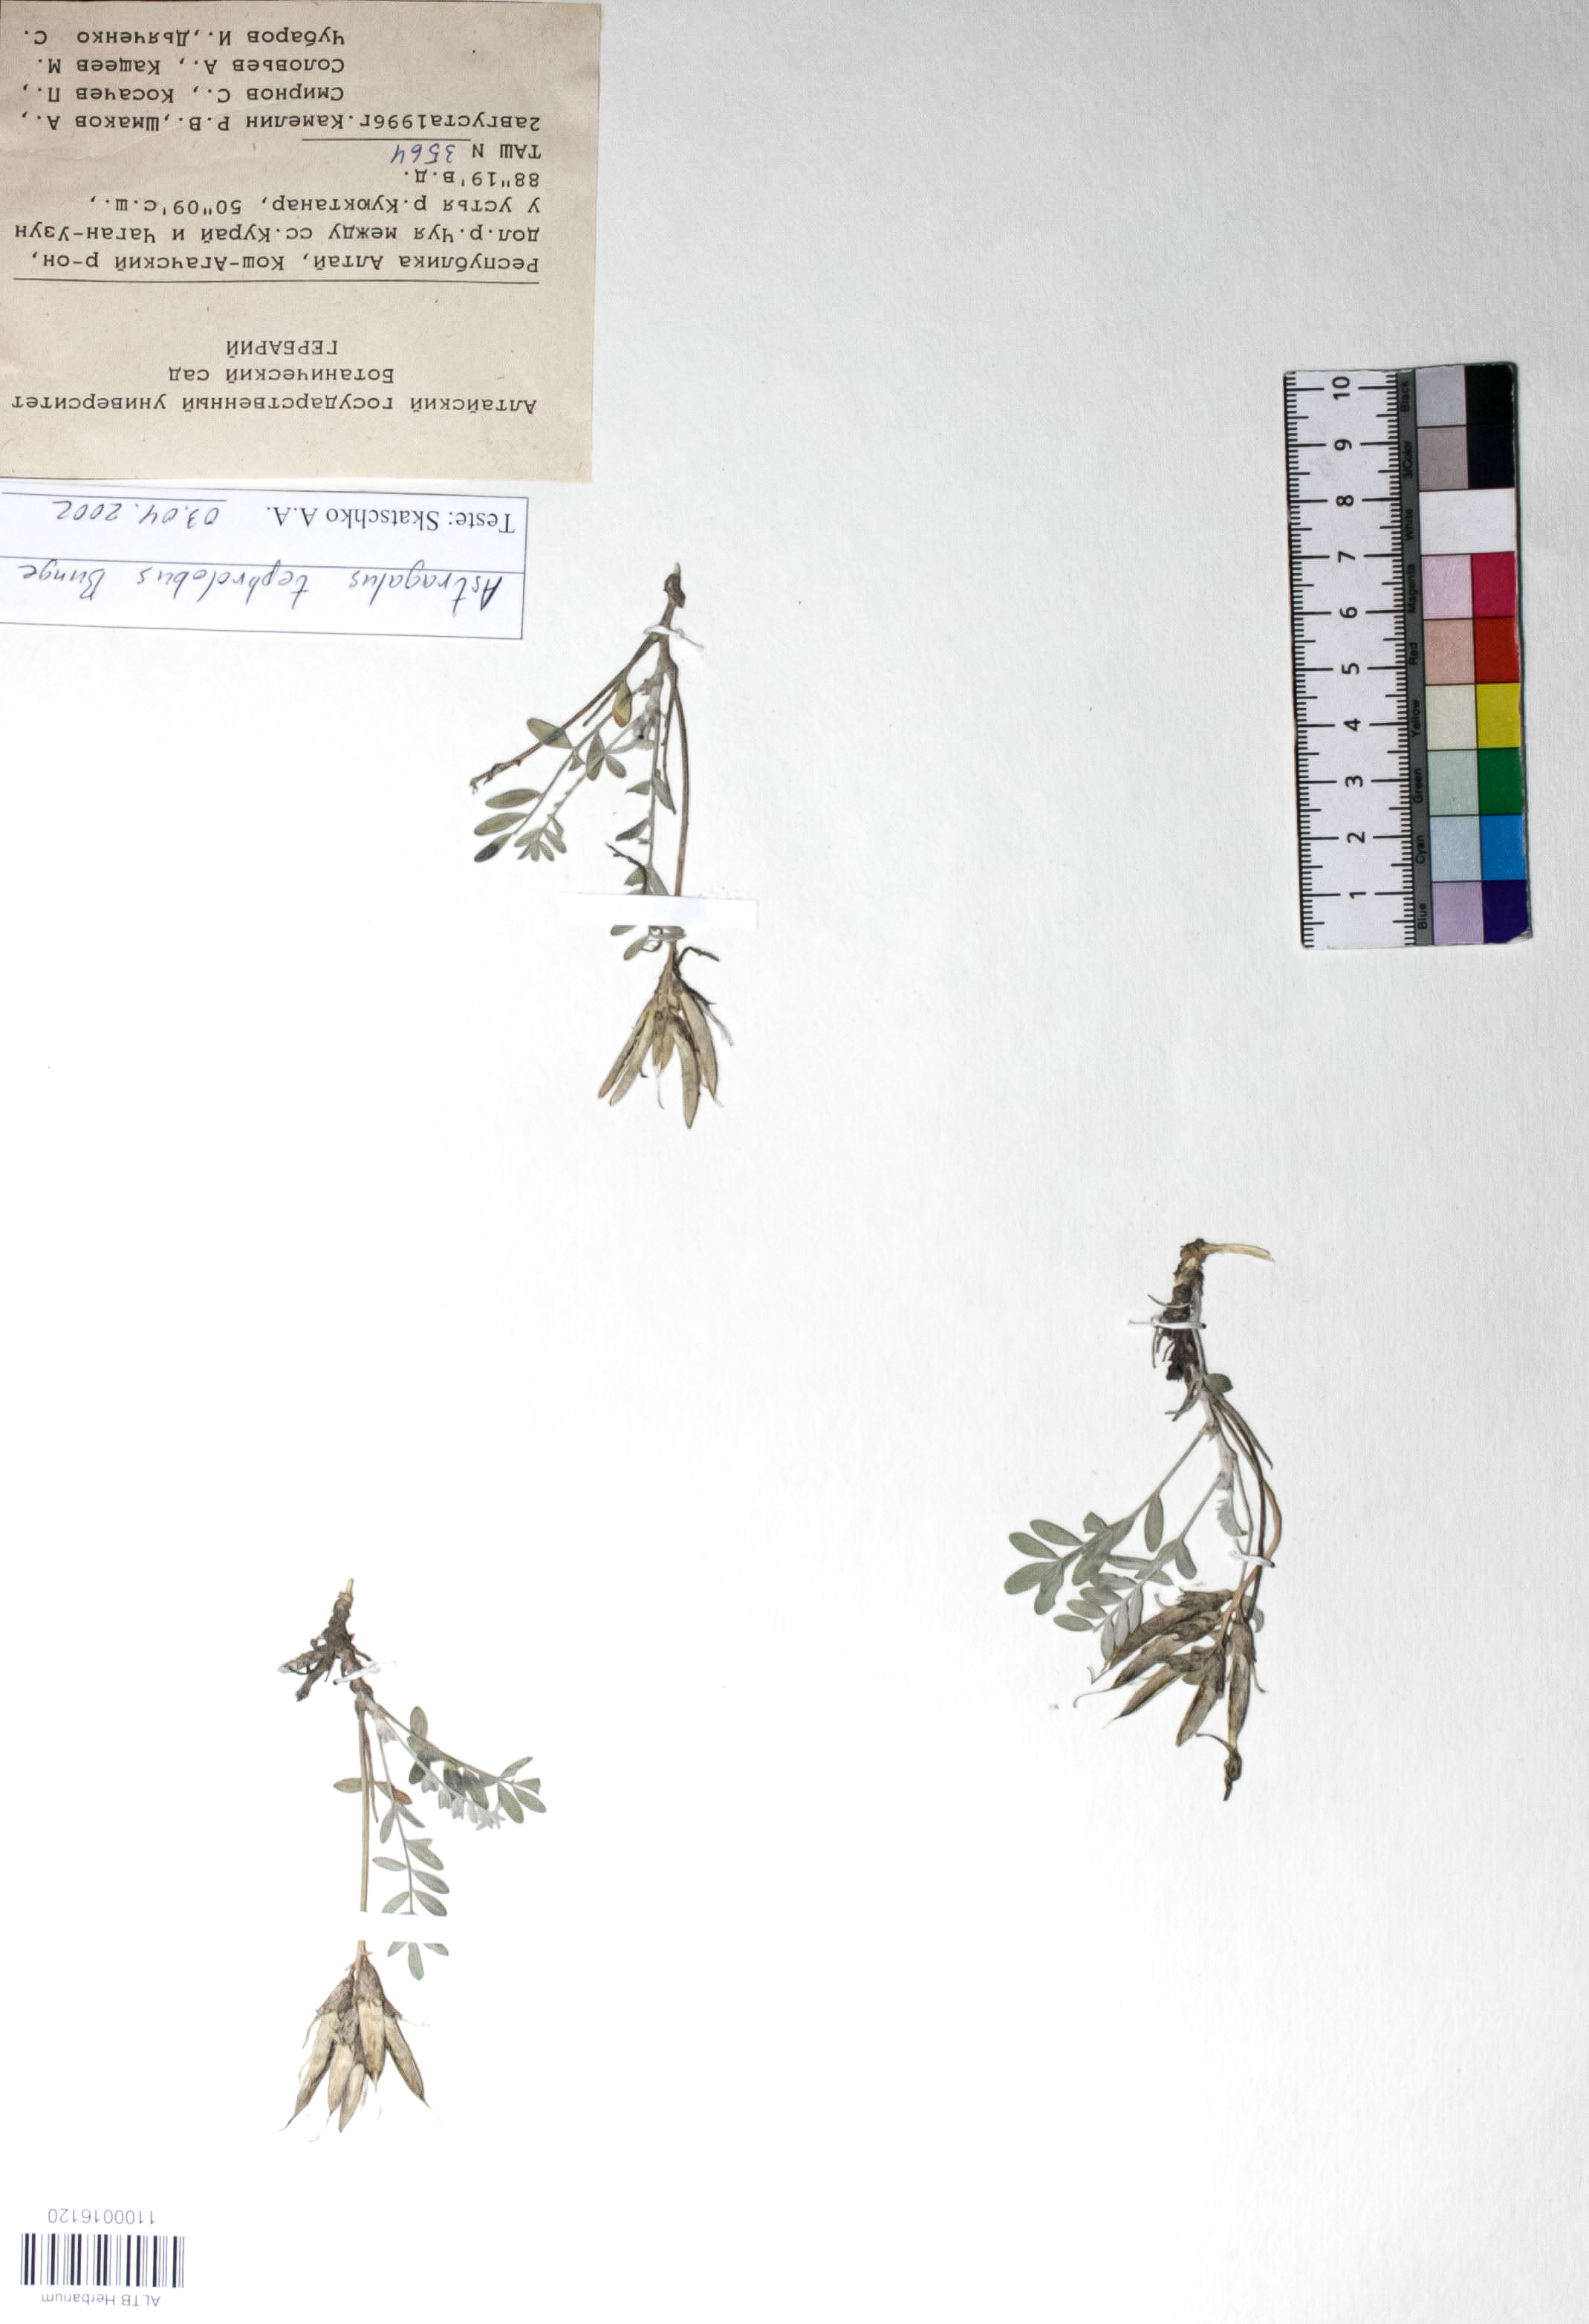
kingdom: Plantae
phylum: Tracheophyta
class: Magnoliopsida
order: Fabales
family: Fabaceae
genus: Astragalus
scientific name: Astragalus tephrolobus
